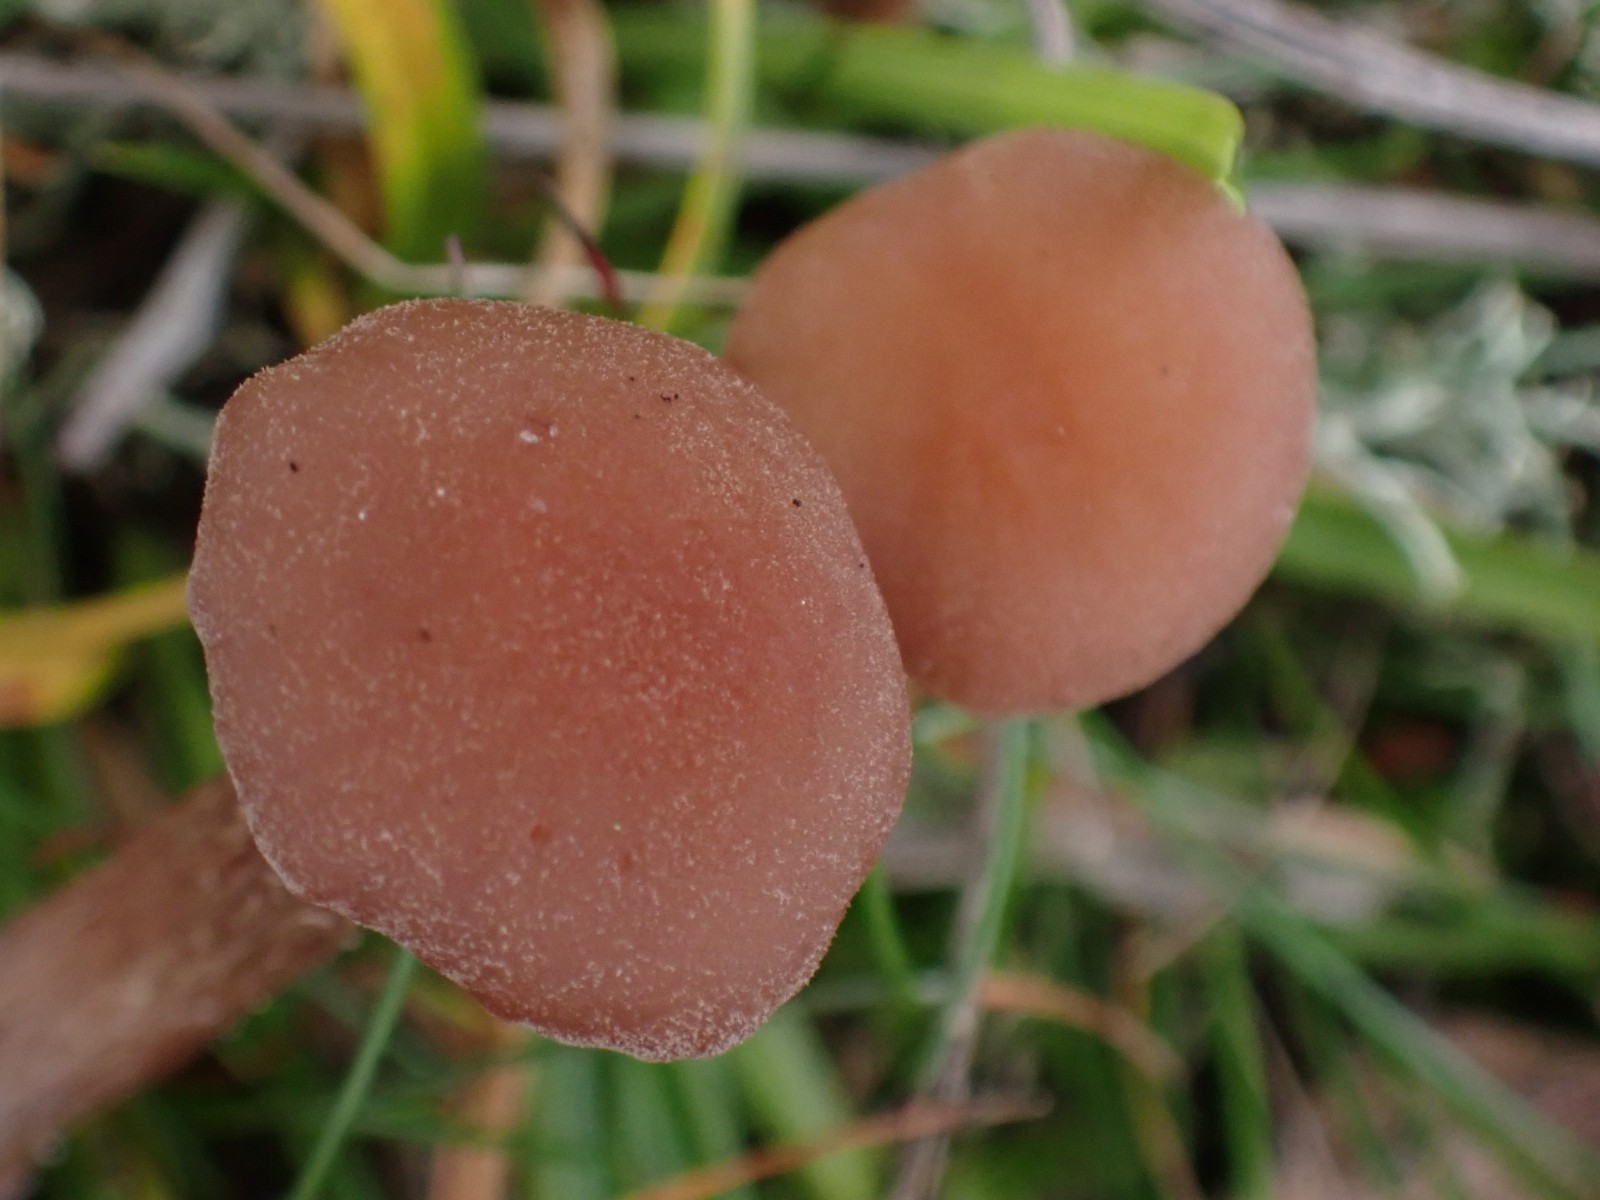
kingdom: Fungi
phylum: Basidiomycota
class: Agaricomycetes
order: Agaricales
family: Hydnangiaceae
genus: Laccaria
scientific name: Laccaria
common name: ametysthat
